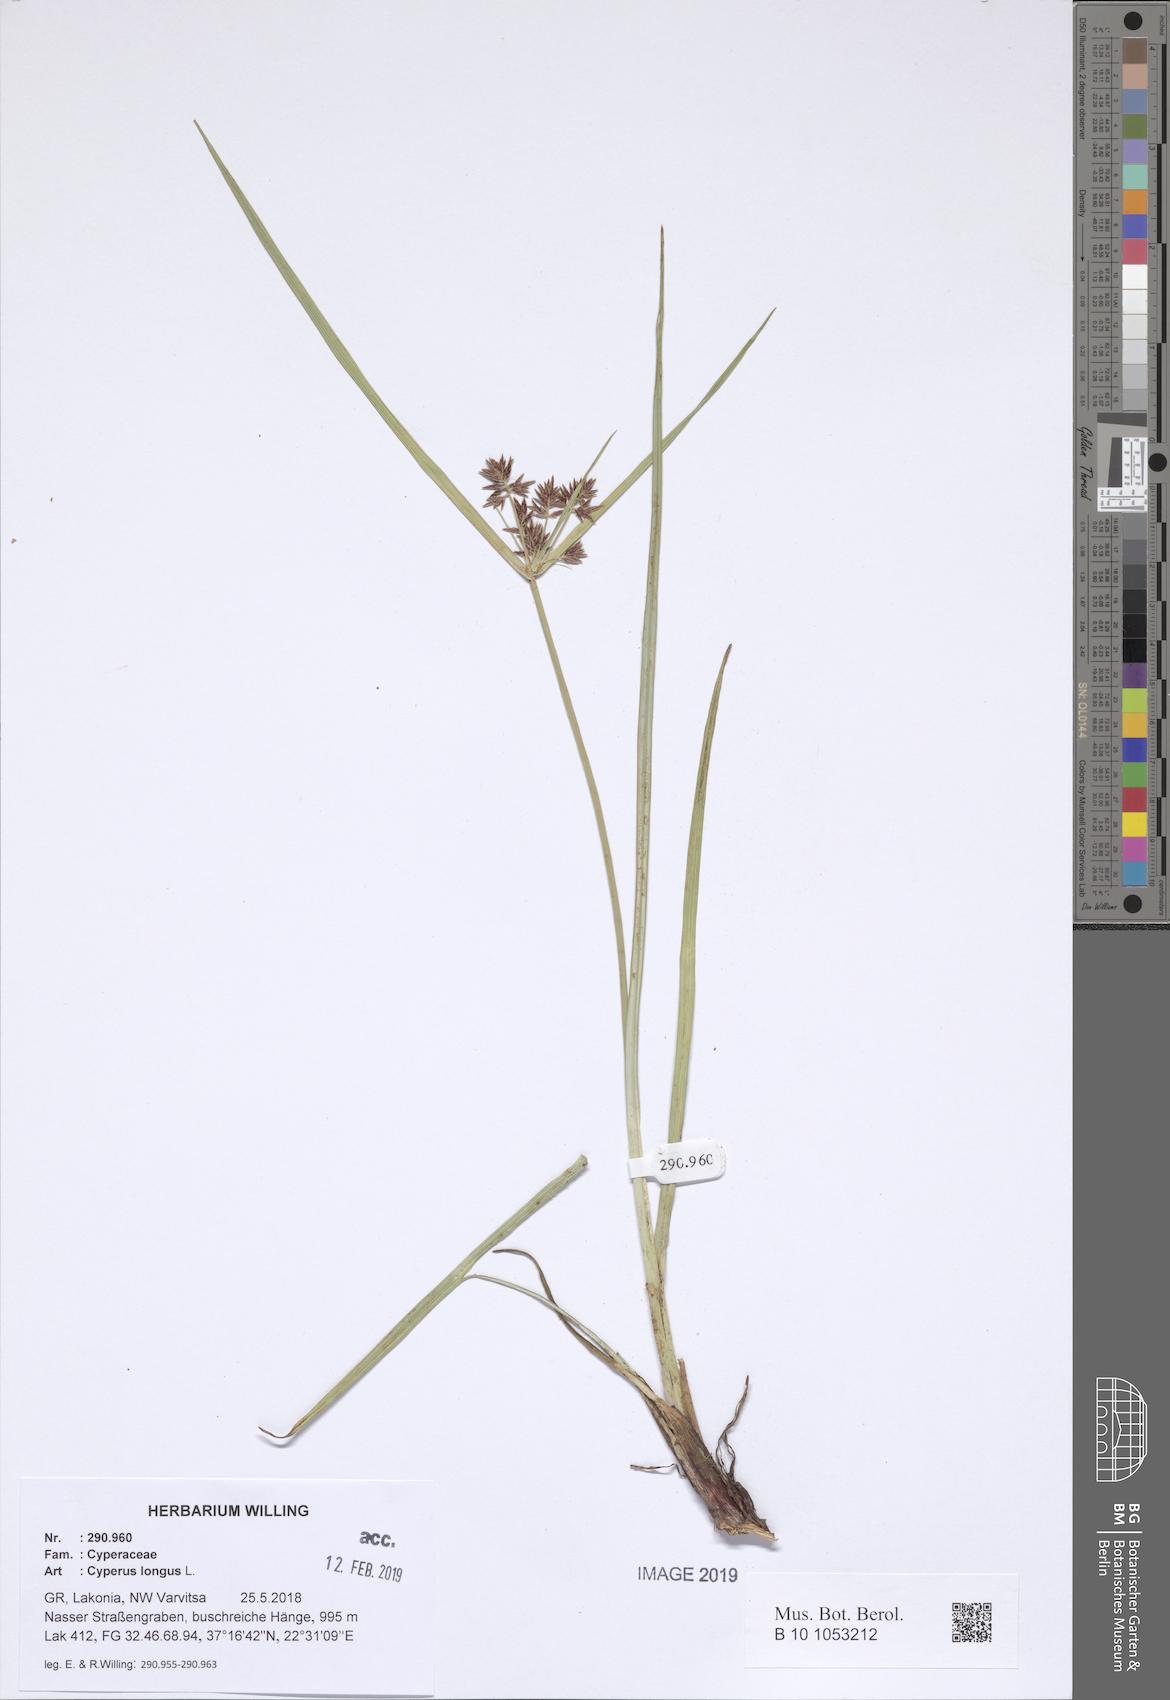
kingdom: Plantae
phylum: Tracheophyta
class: Liliopsida
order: Poales
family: Cyperaceae
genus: Cyperus
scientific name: Cyperus longus
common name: Galingale
